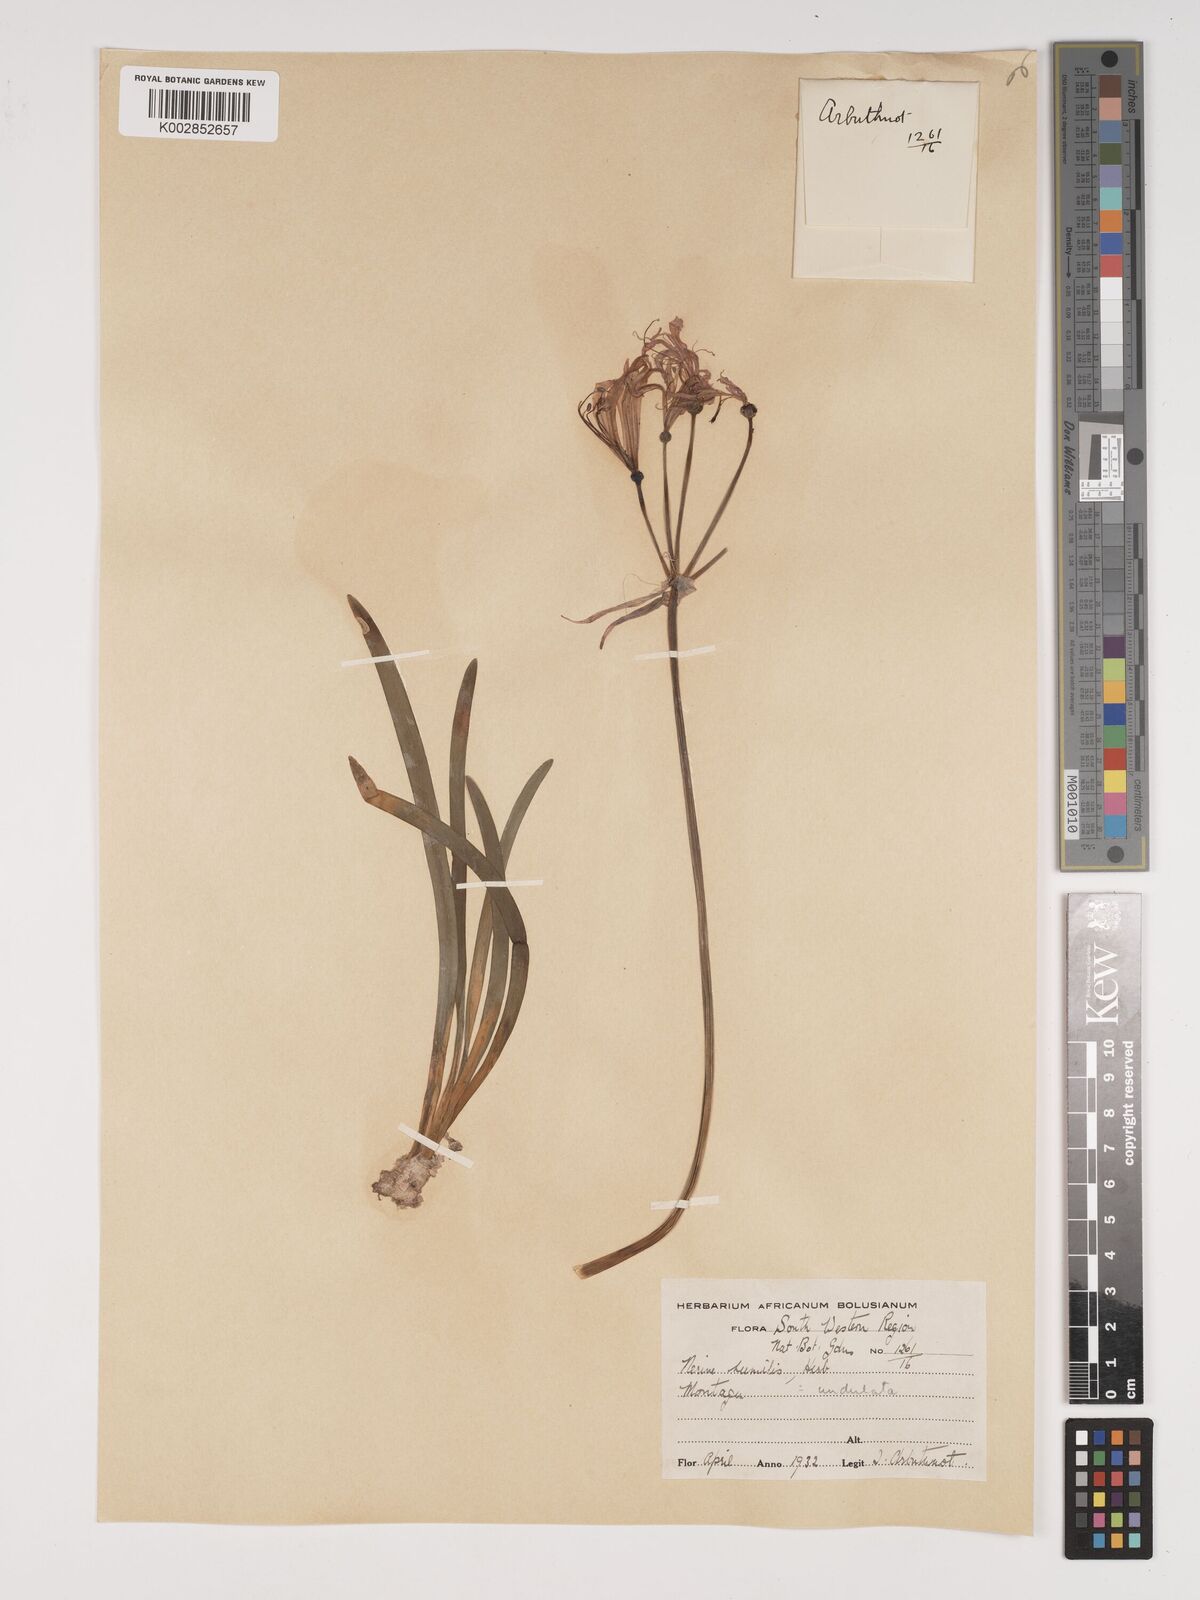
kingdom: Plantae
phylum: Tracheophyta
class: Liliopsida
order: Asparagales
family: Amaryllidaceae
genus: Nerine
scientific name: Nerine humilis
